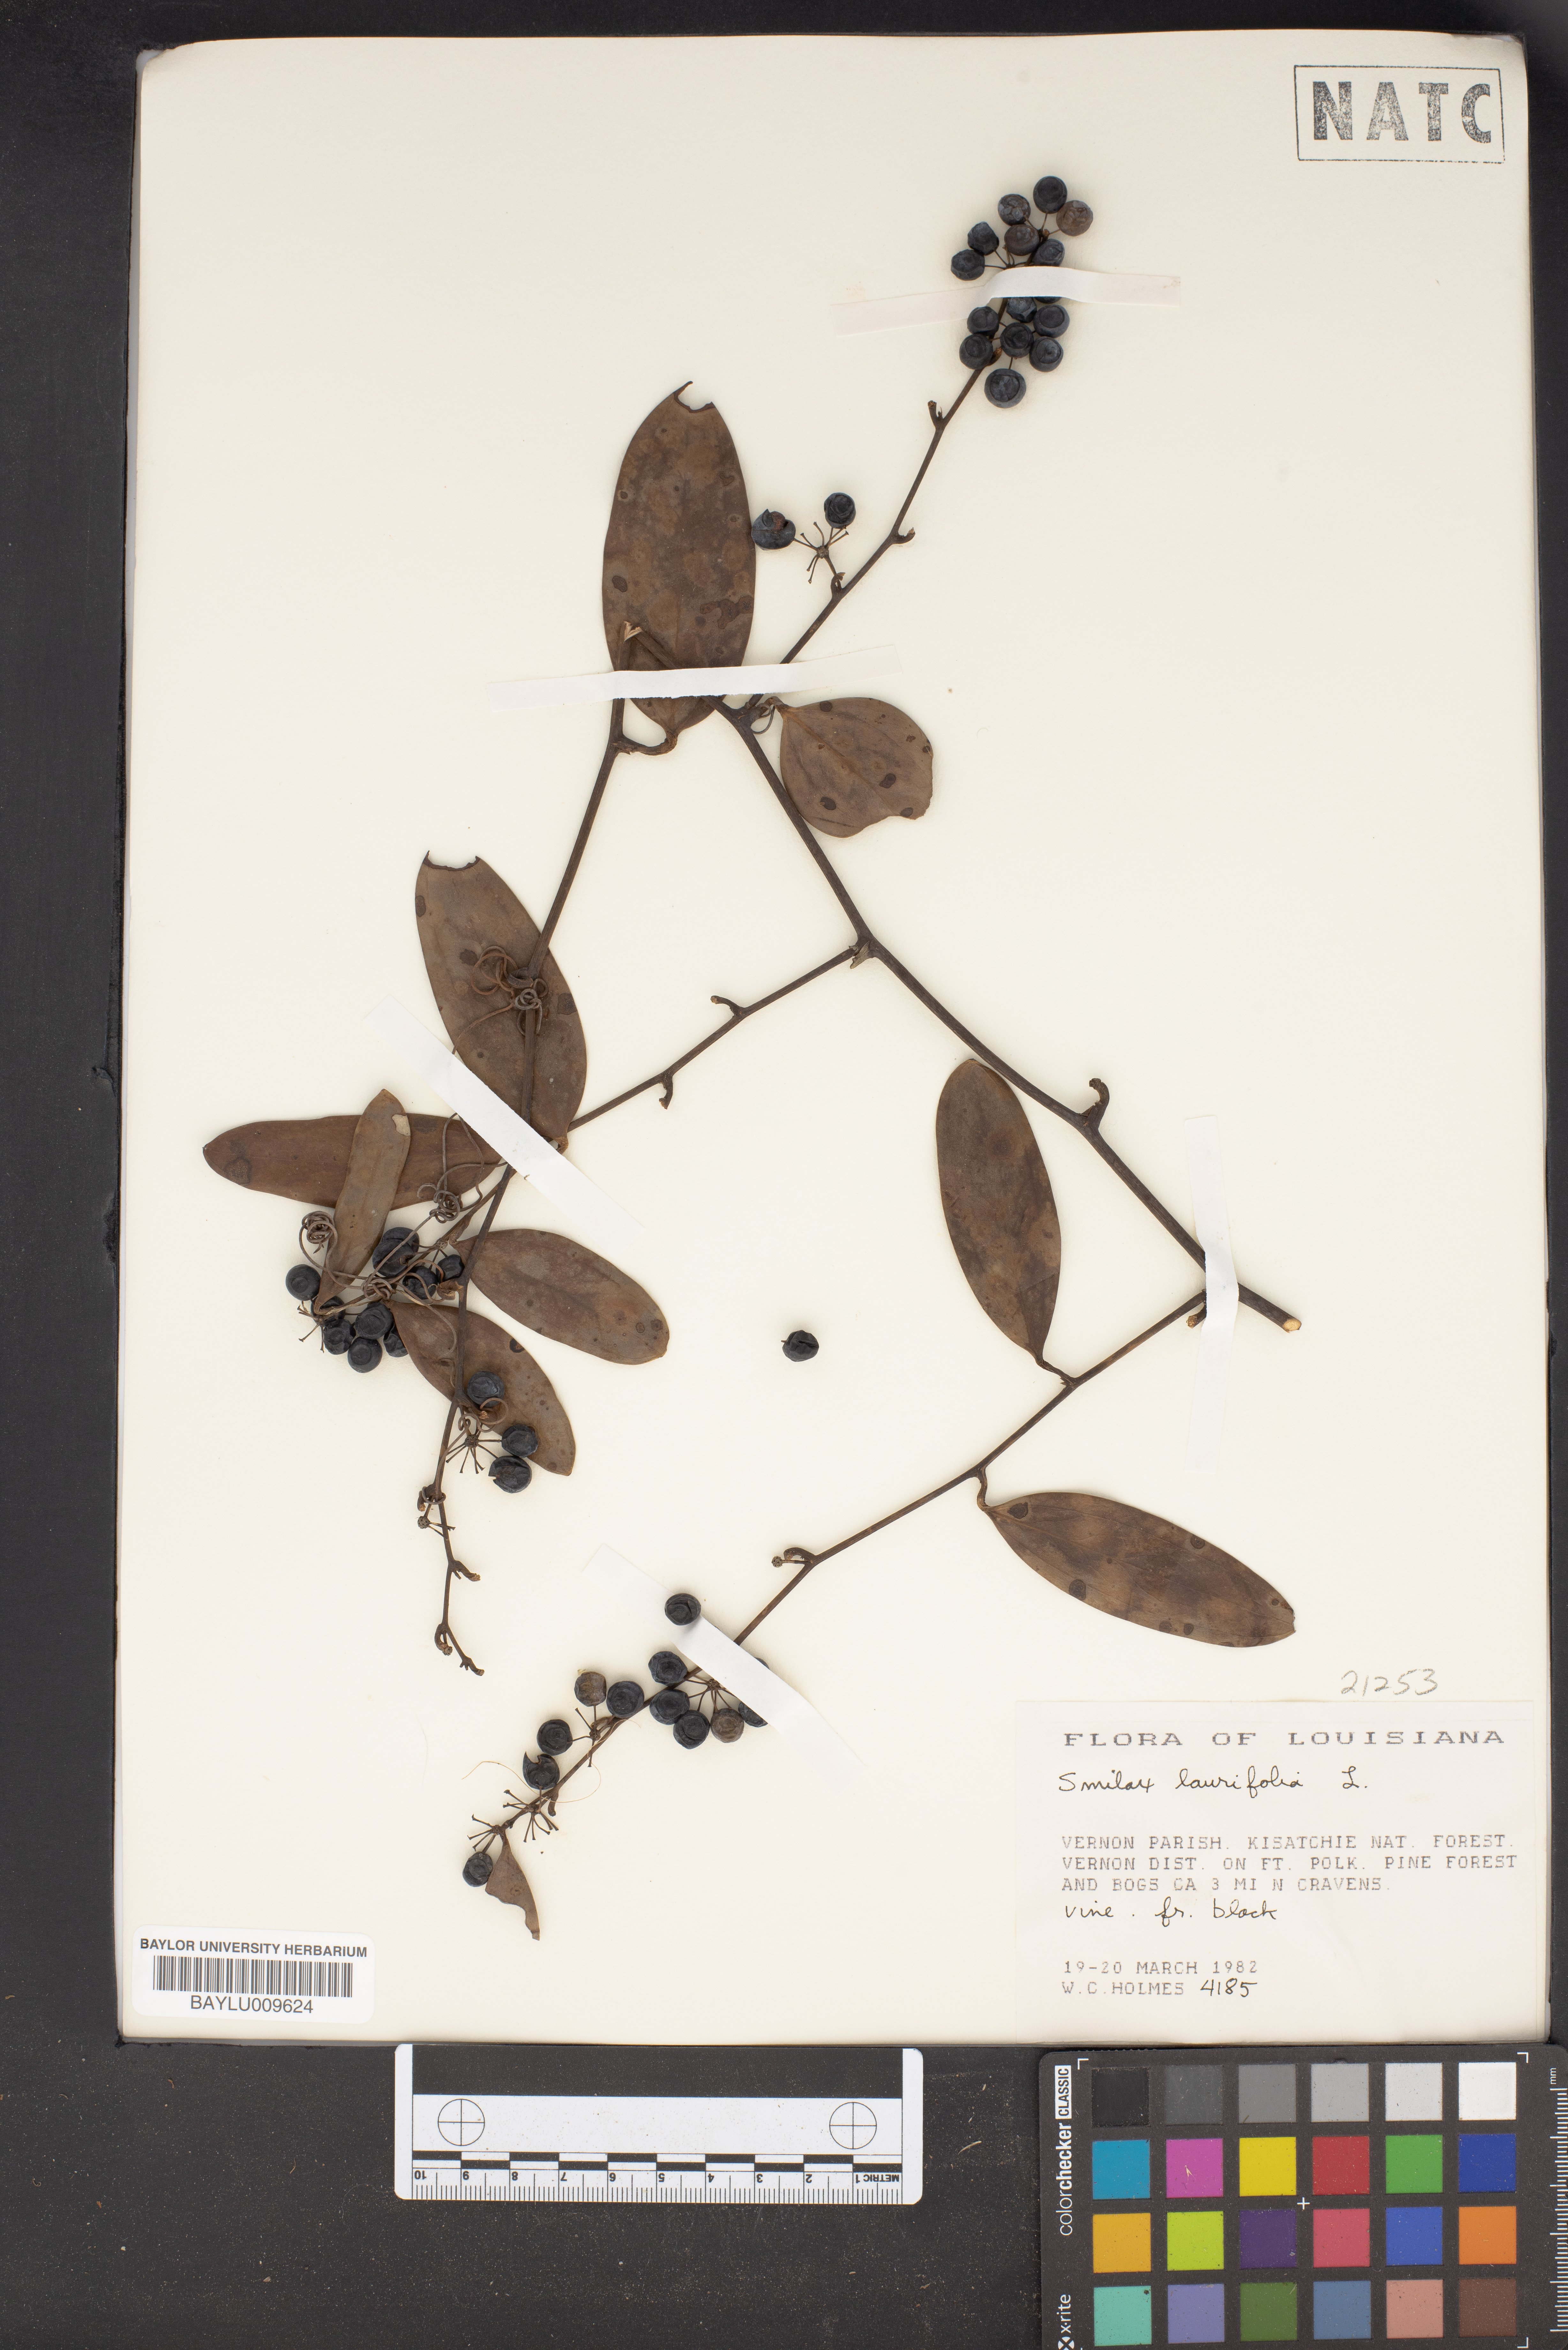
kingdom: Plantae
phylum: Tracheophyta
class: Liliopsida
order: Liliales
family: Smilacaceae
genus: Smilax
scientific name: Smilax laurifolia
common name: Bamboovine
